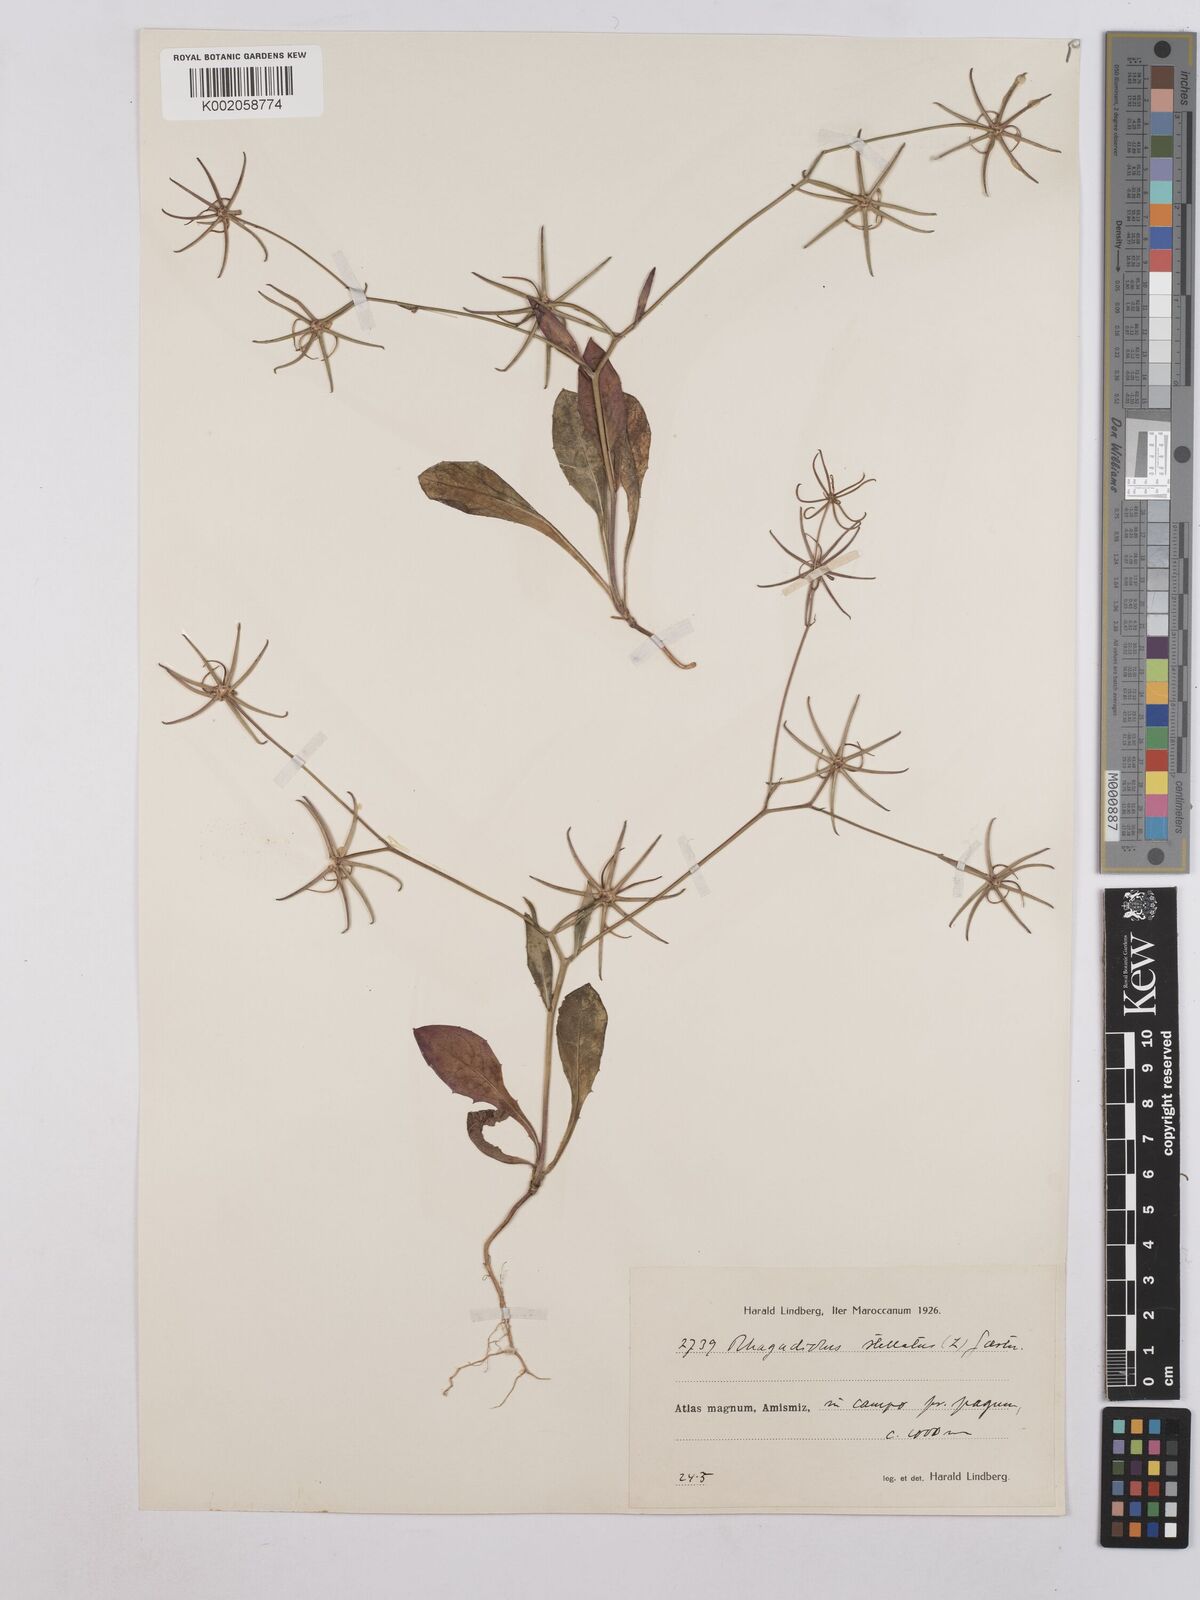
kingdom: Plantae
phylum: Tracheophyta
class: Magnoliopsida
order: Asterales
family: Asteraceae
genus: Rhagadiolus
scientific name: Rhagadiolus stellatus
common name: Star hawkbit
